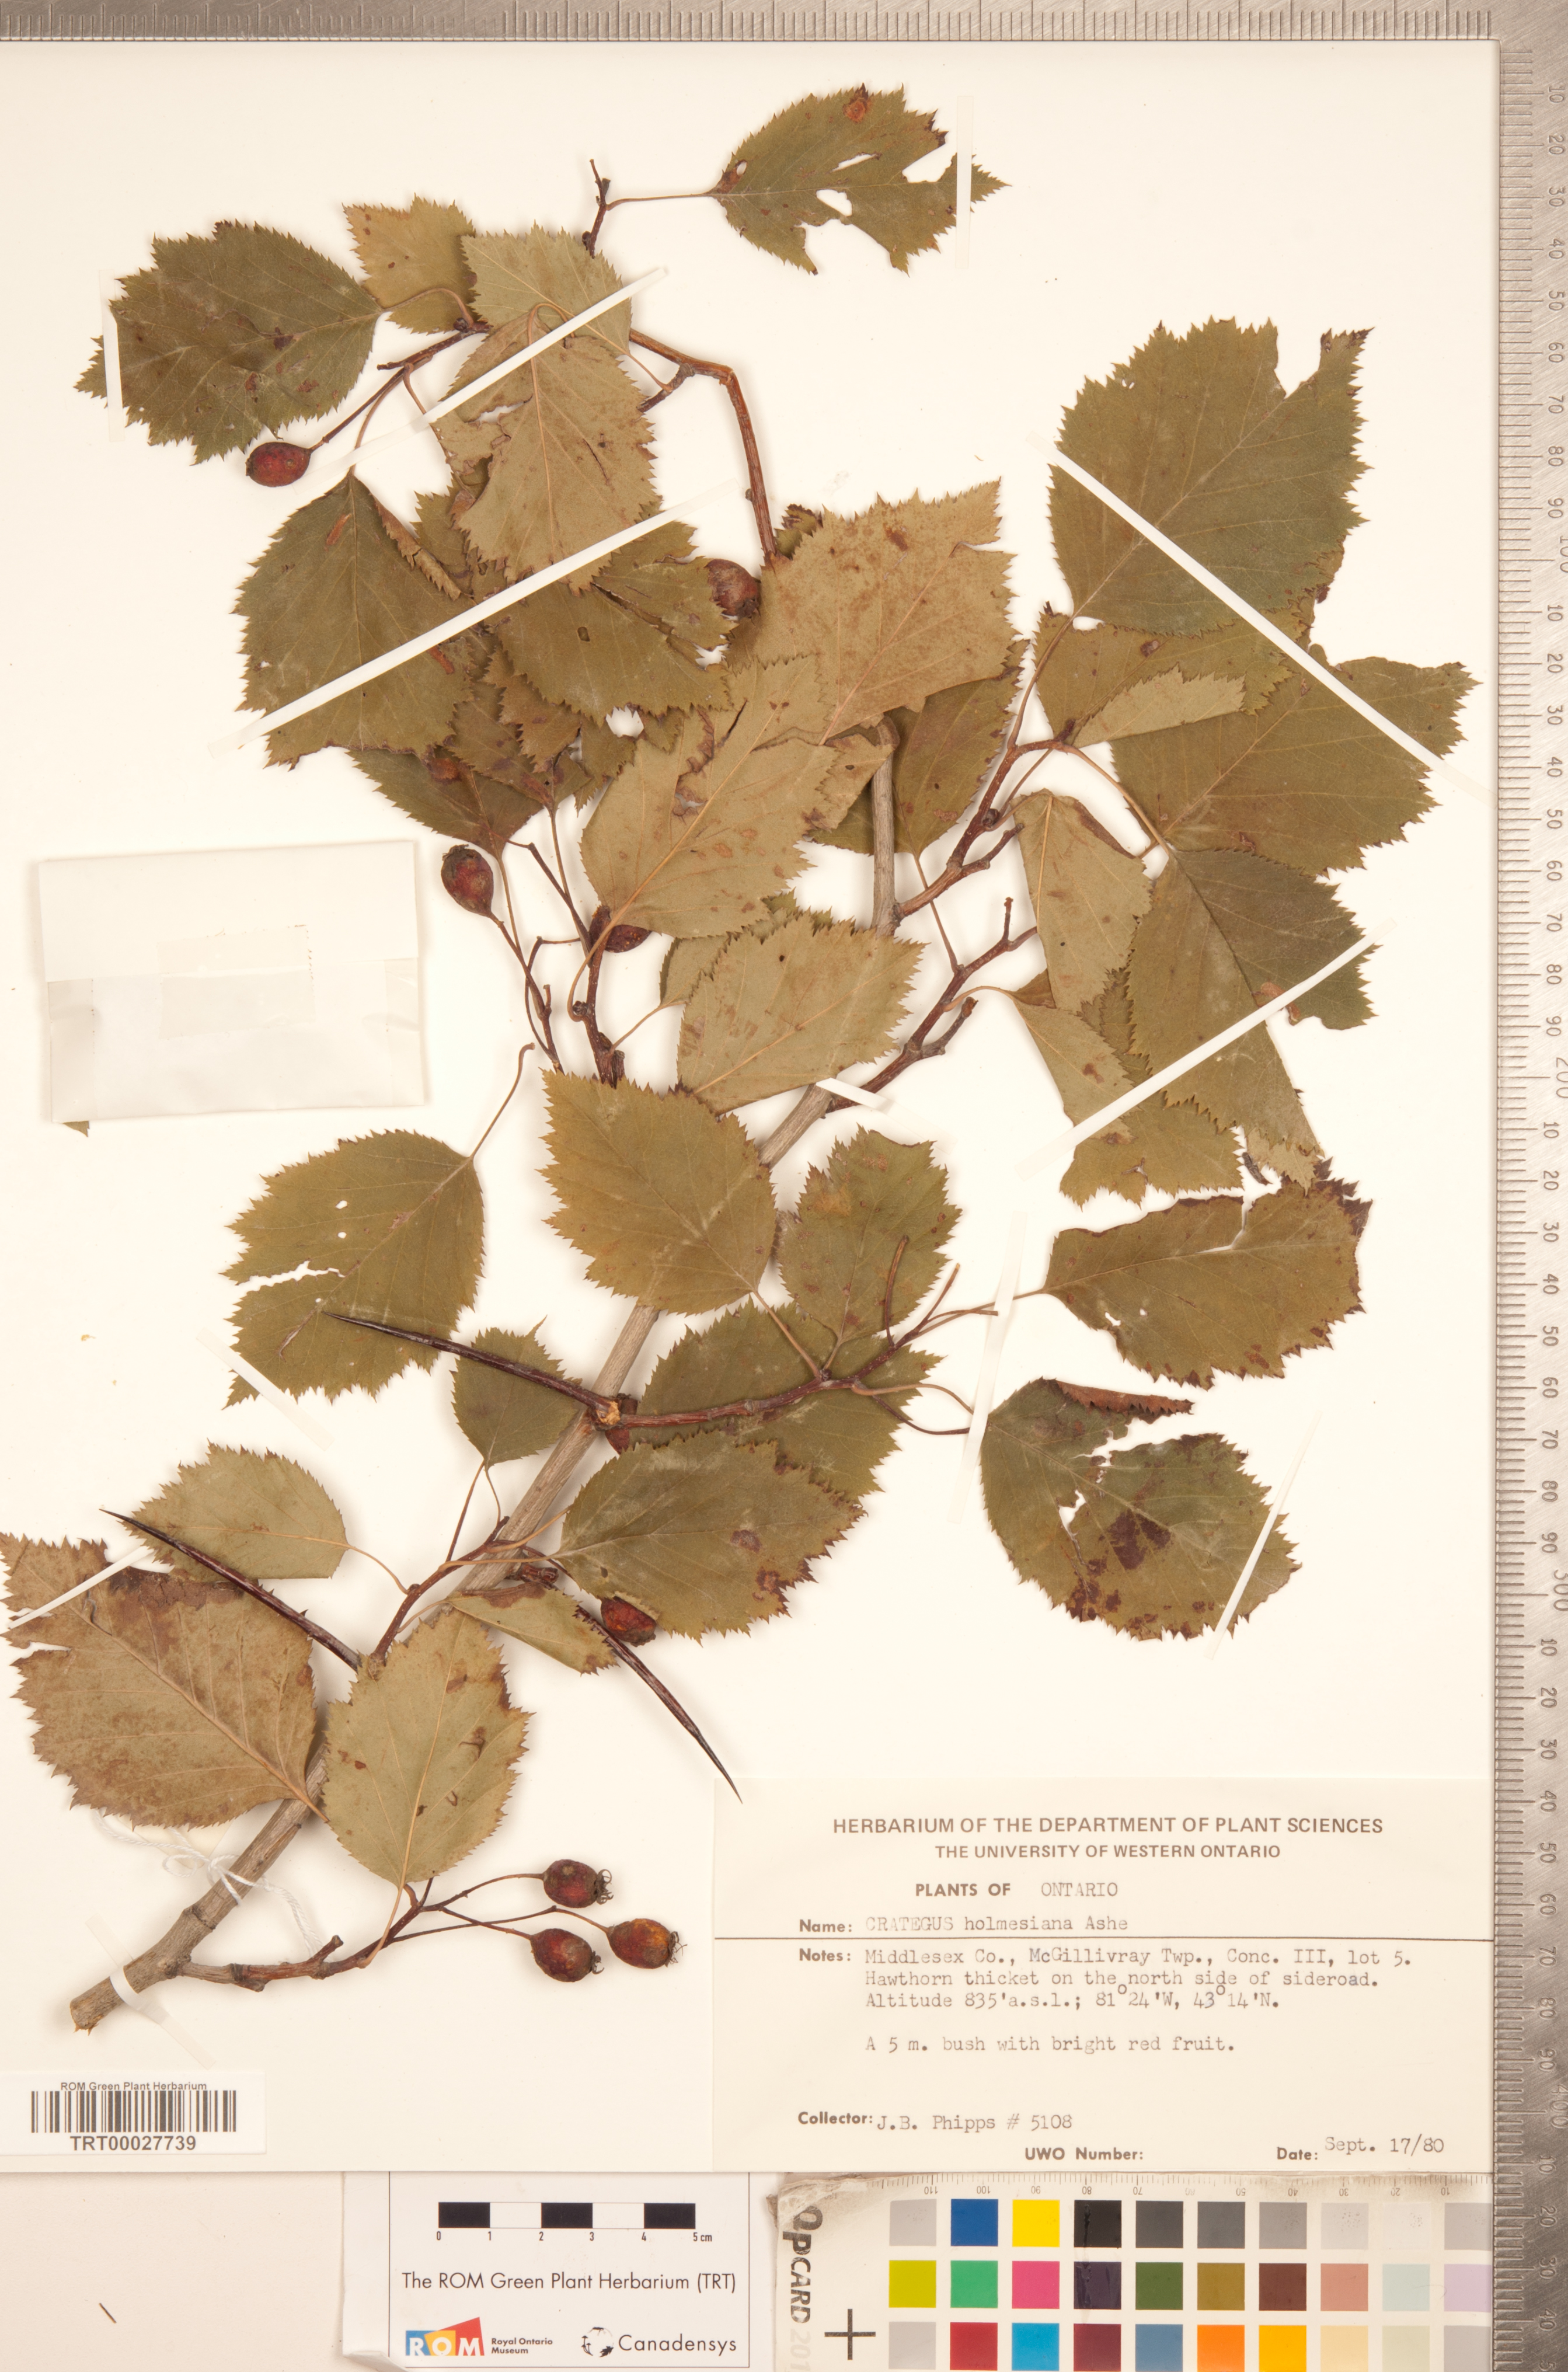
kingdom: Plantae
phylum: Tracheophyta
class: Magnoliopsida
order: Rosales
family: Rosaceae
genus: Crataegus
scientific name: Crataegus holmesiana
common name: Holmes' hawthorn
